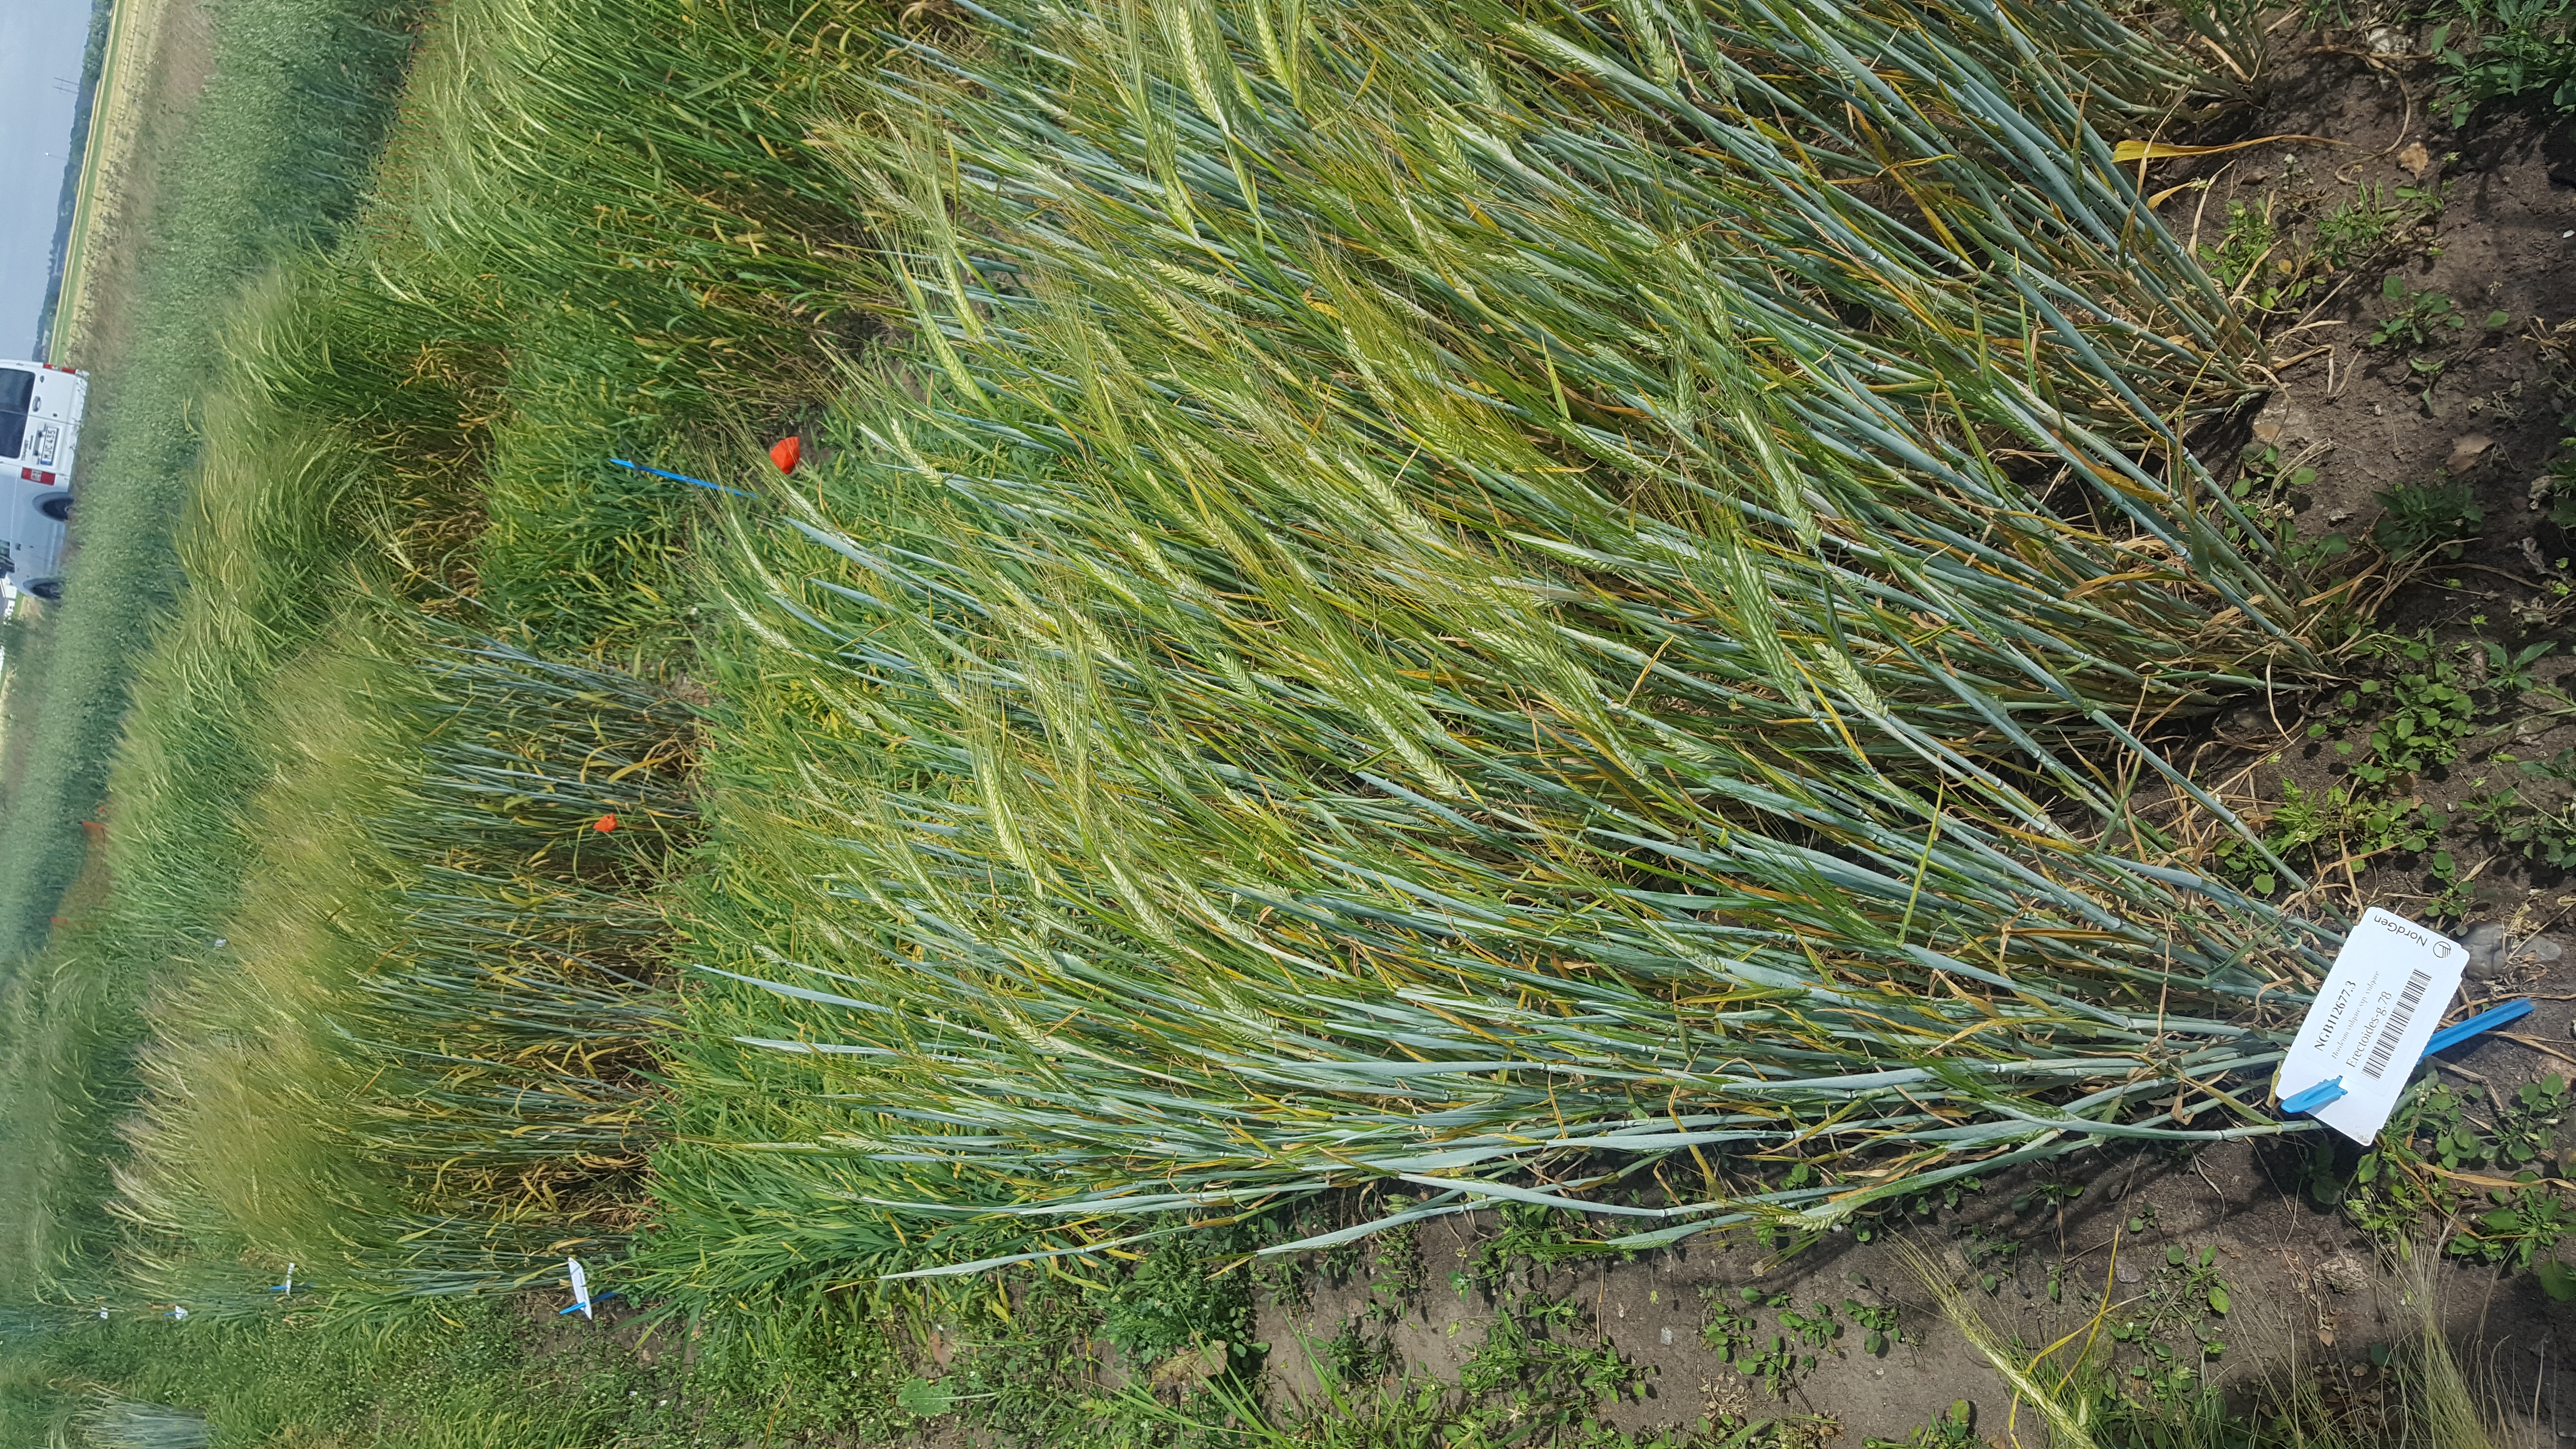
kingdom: Plantae
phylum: Tracheophyta
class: Liliopsida
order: Poales
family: Poaceae
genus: Hordeum
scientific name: Hordeum vulgare
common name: Common barley
